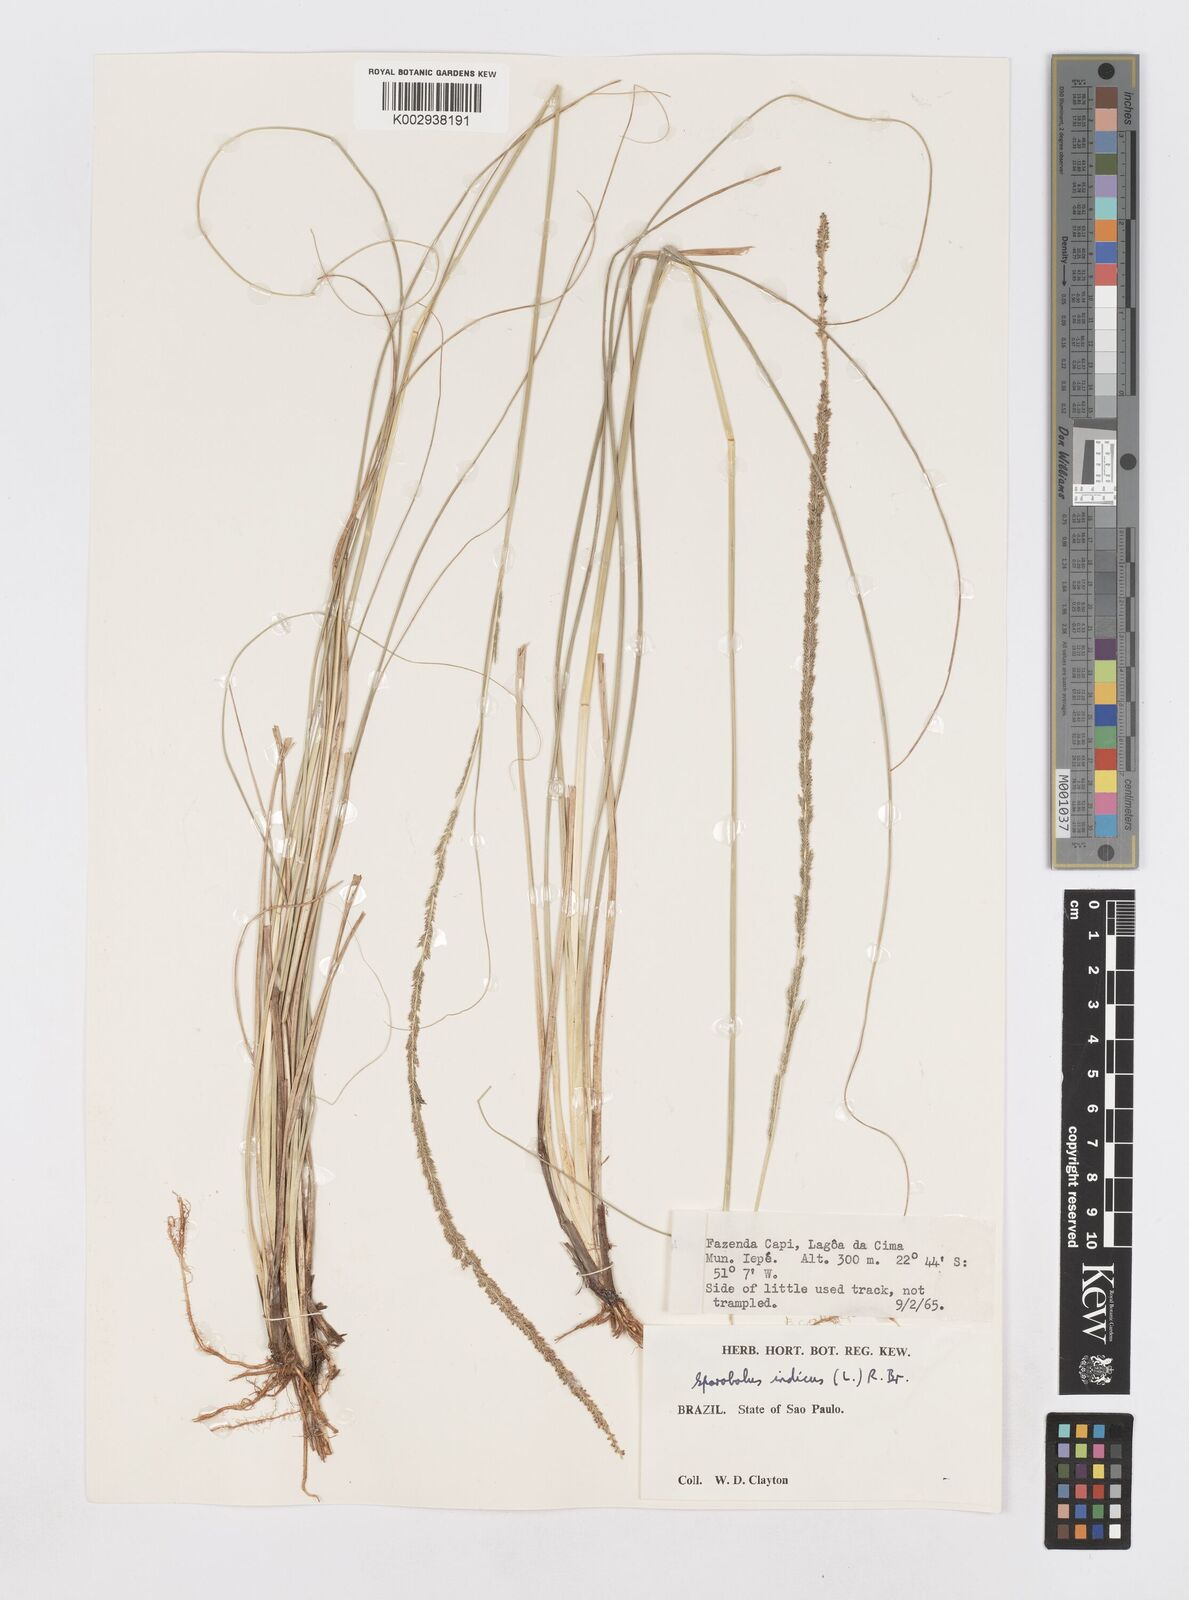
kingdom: Plantae
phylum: Tracheophyta
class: Liliopsida
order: Poales
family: Poaceae
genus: Sporobolus
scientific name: Sporobolus indicus
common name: Smut grass
